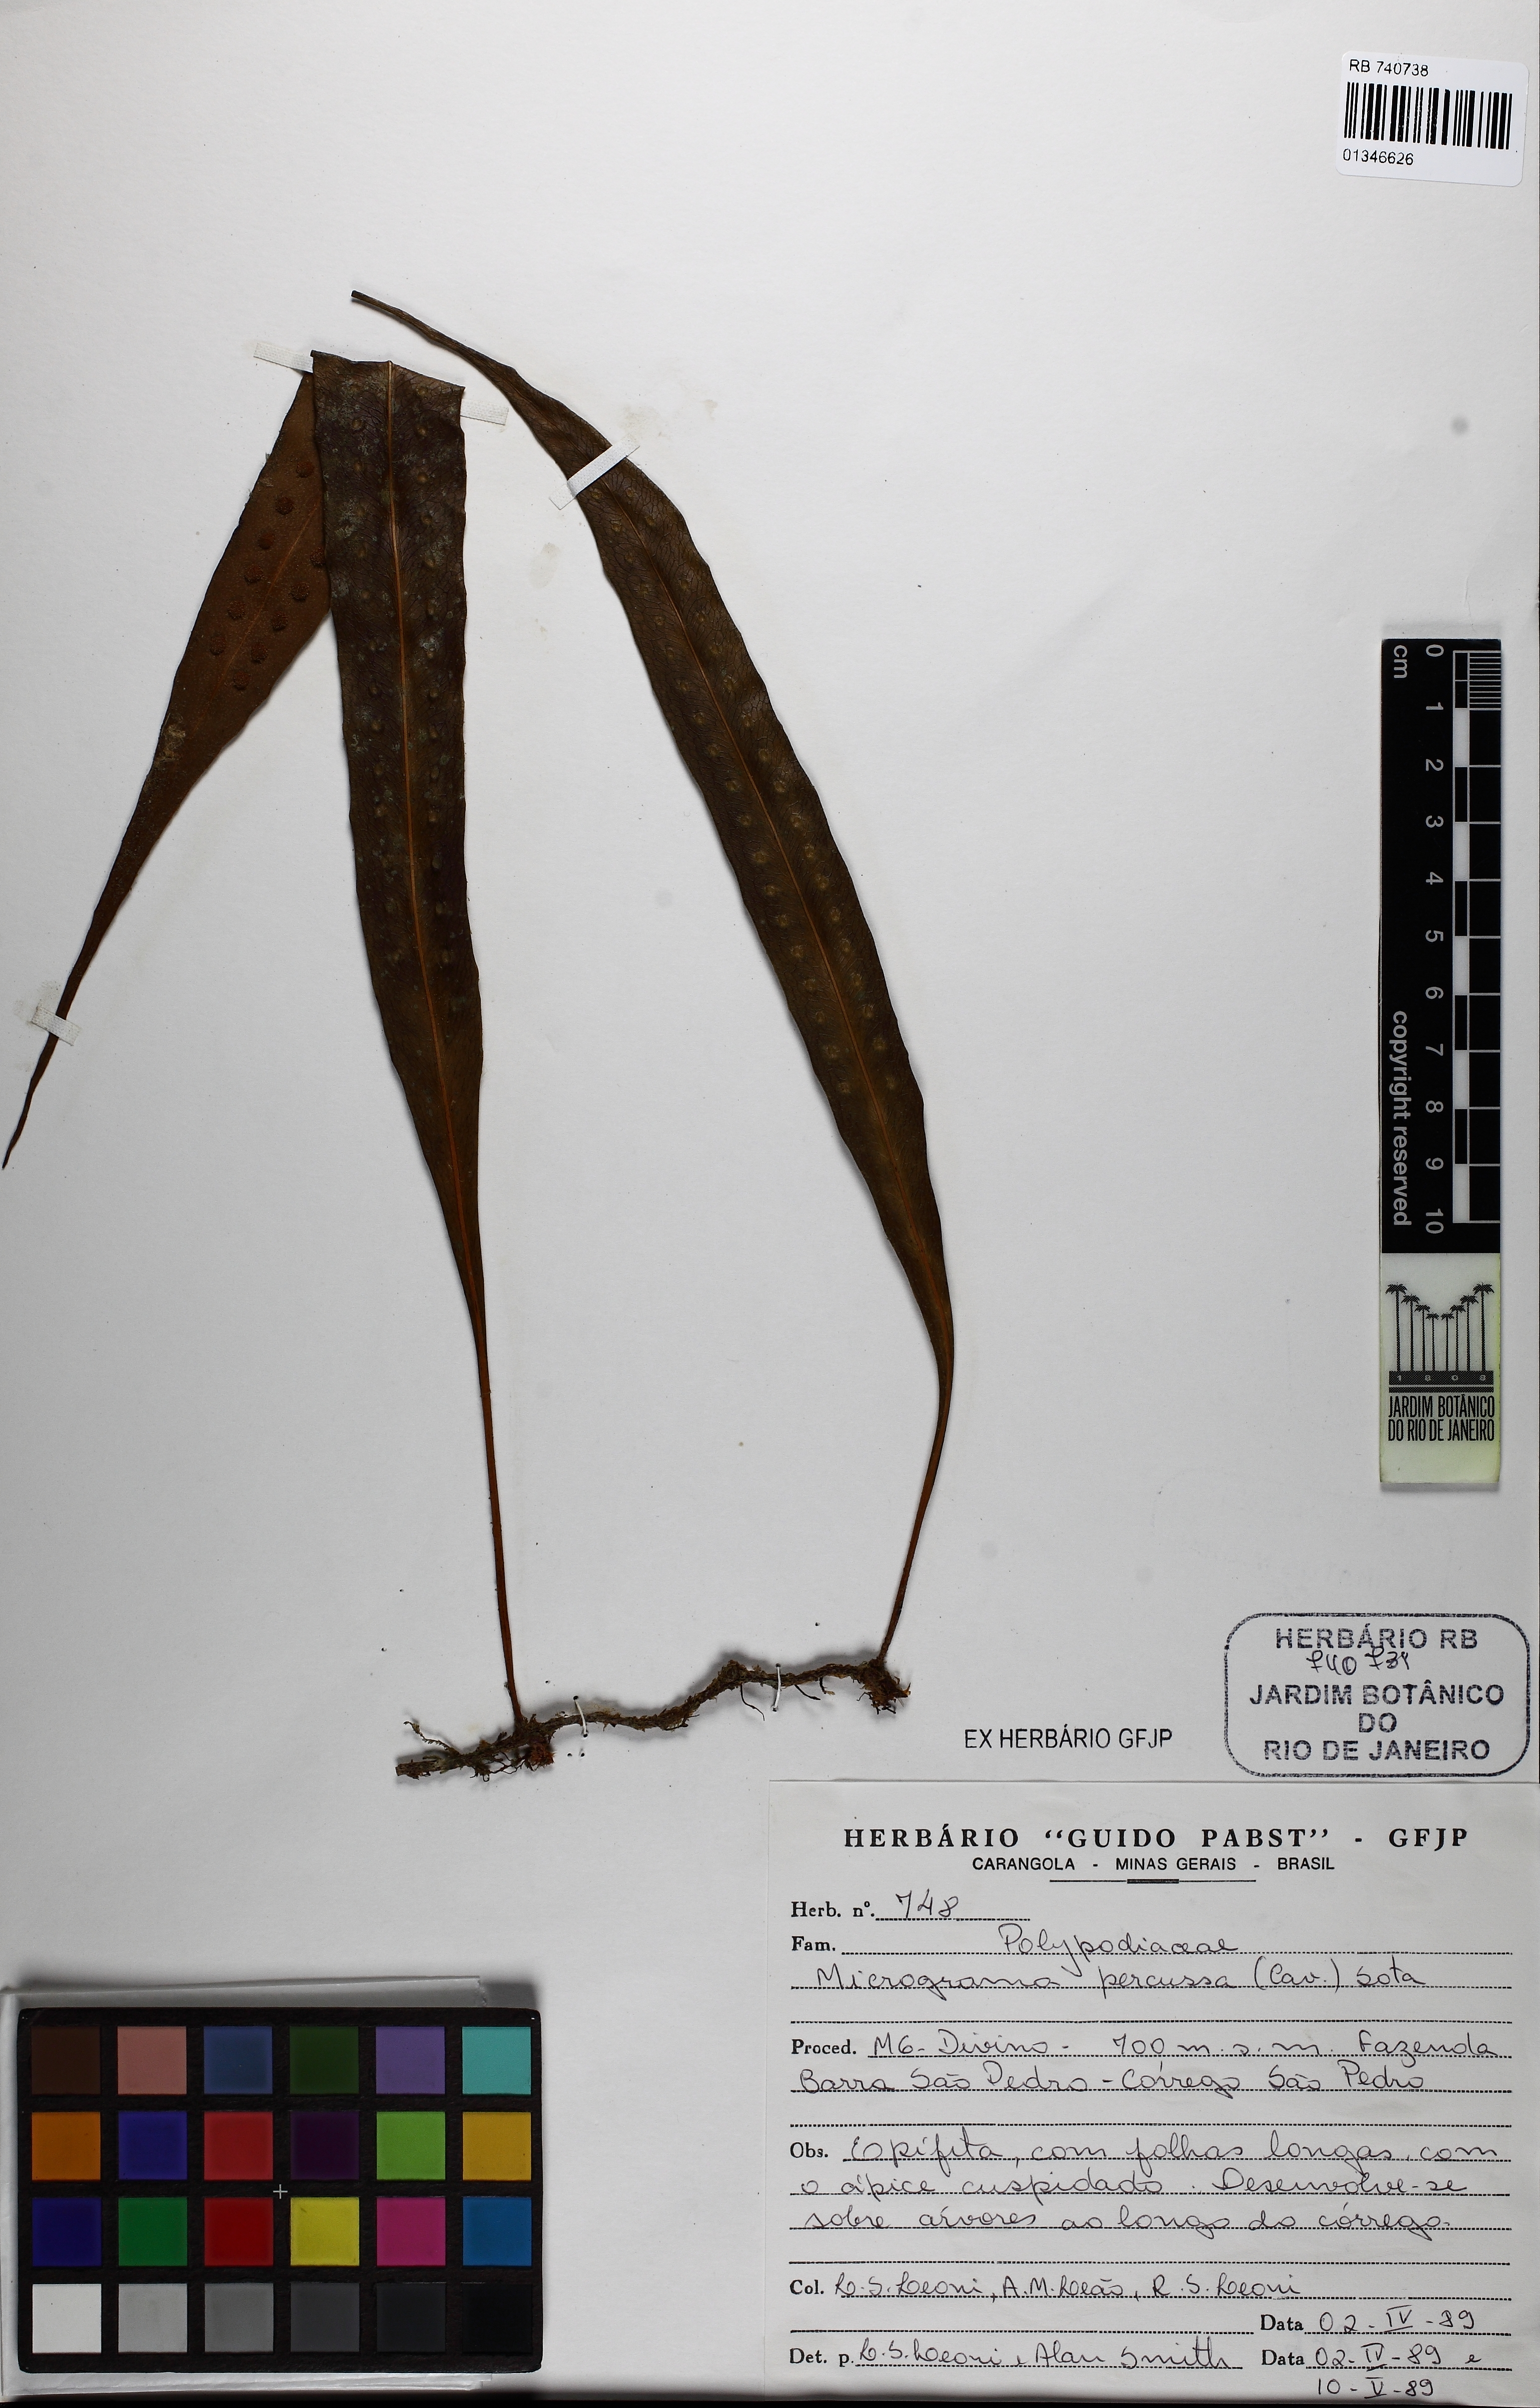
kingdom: Plantae
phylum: Tracheophyta
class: Polypodiopsida
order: Polypodiales
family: Polypodiaceae
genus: Microgramma
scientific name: Microgramma percussa
